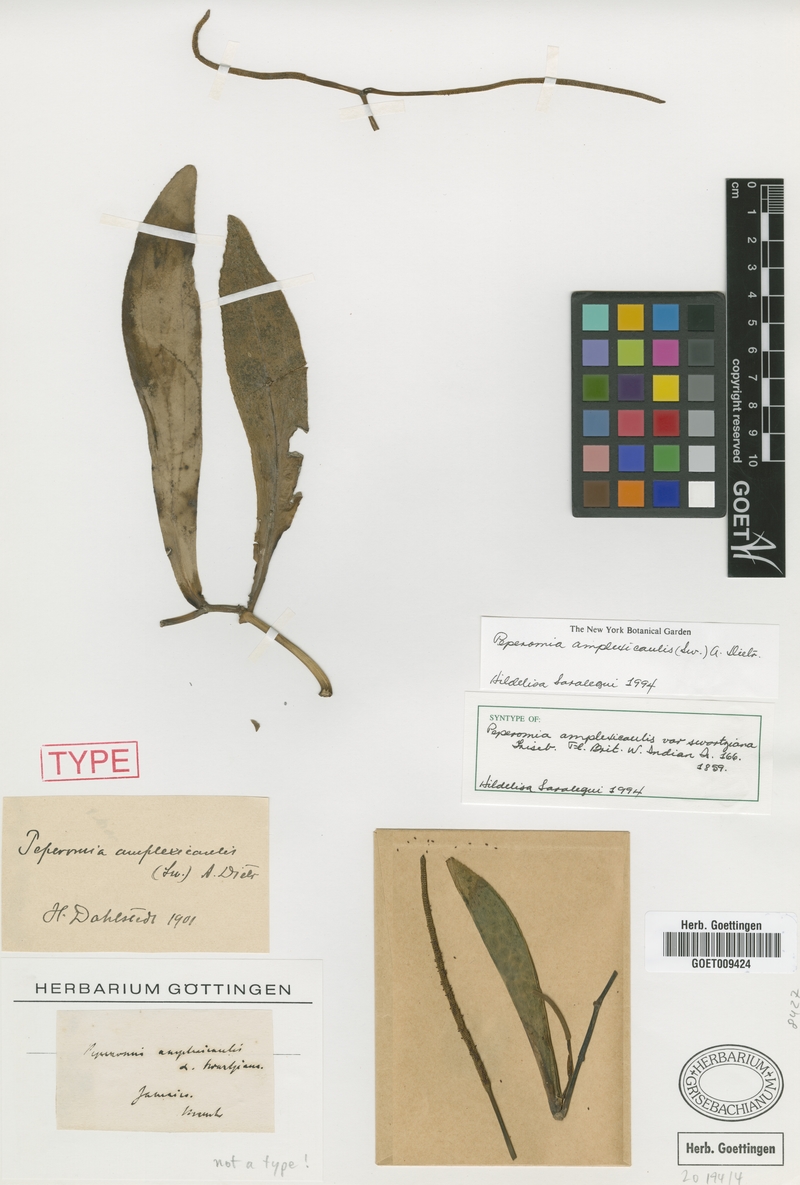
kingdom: Plantae
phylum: Tracheophyta
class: Magnoliopsida
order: Piperales
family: Piperaceae
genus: Peperomia
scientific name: Peperomia amplexicaulis
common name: Jackie's saddle
